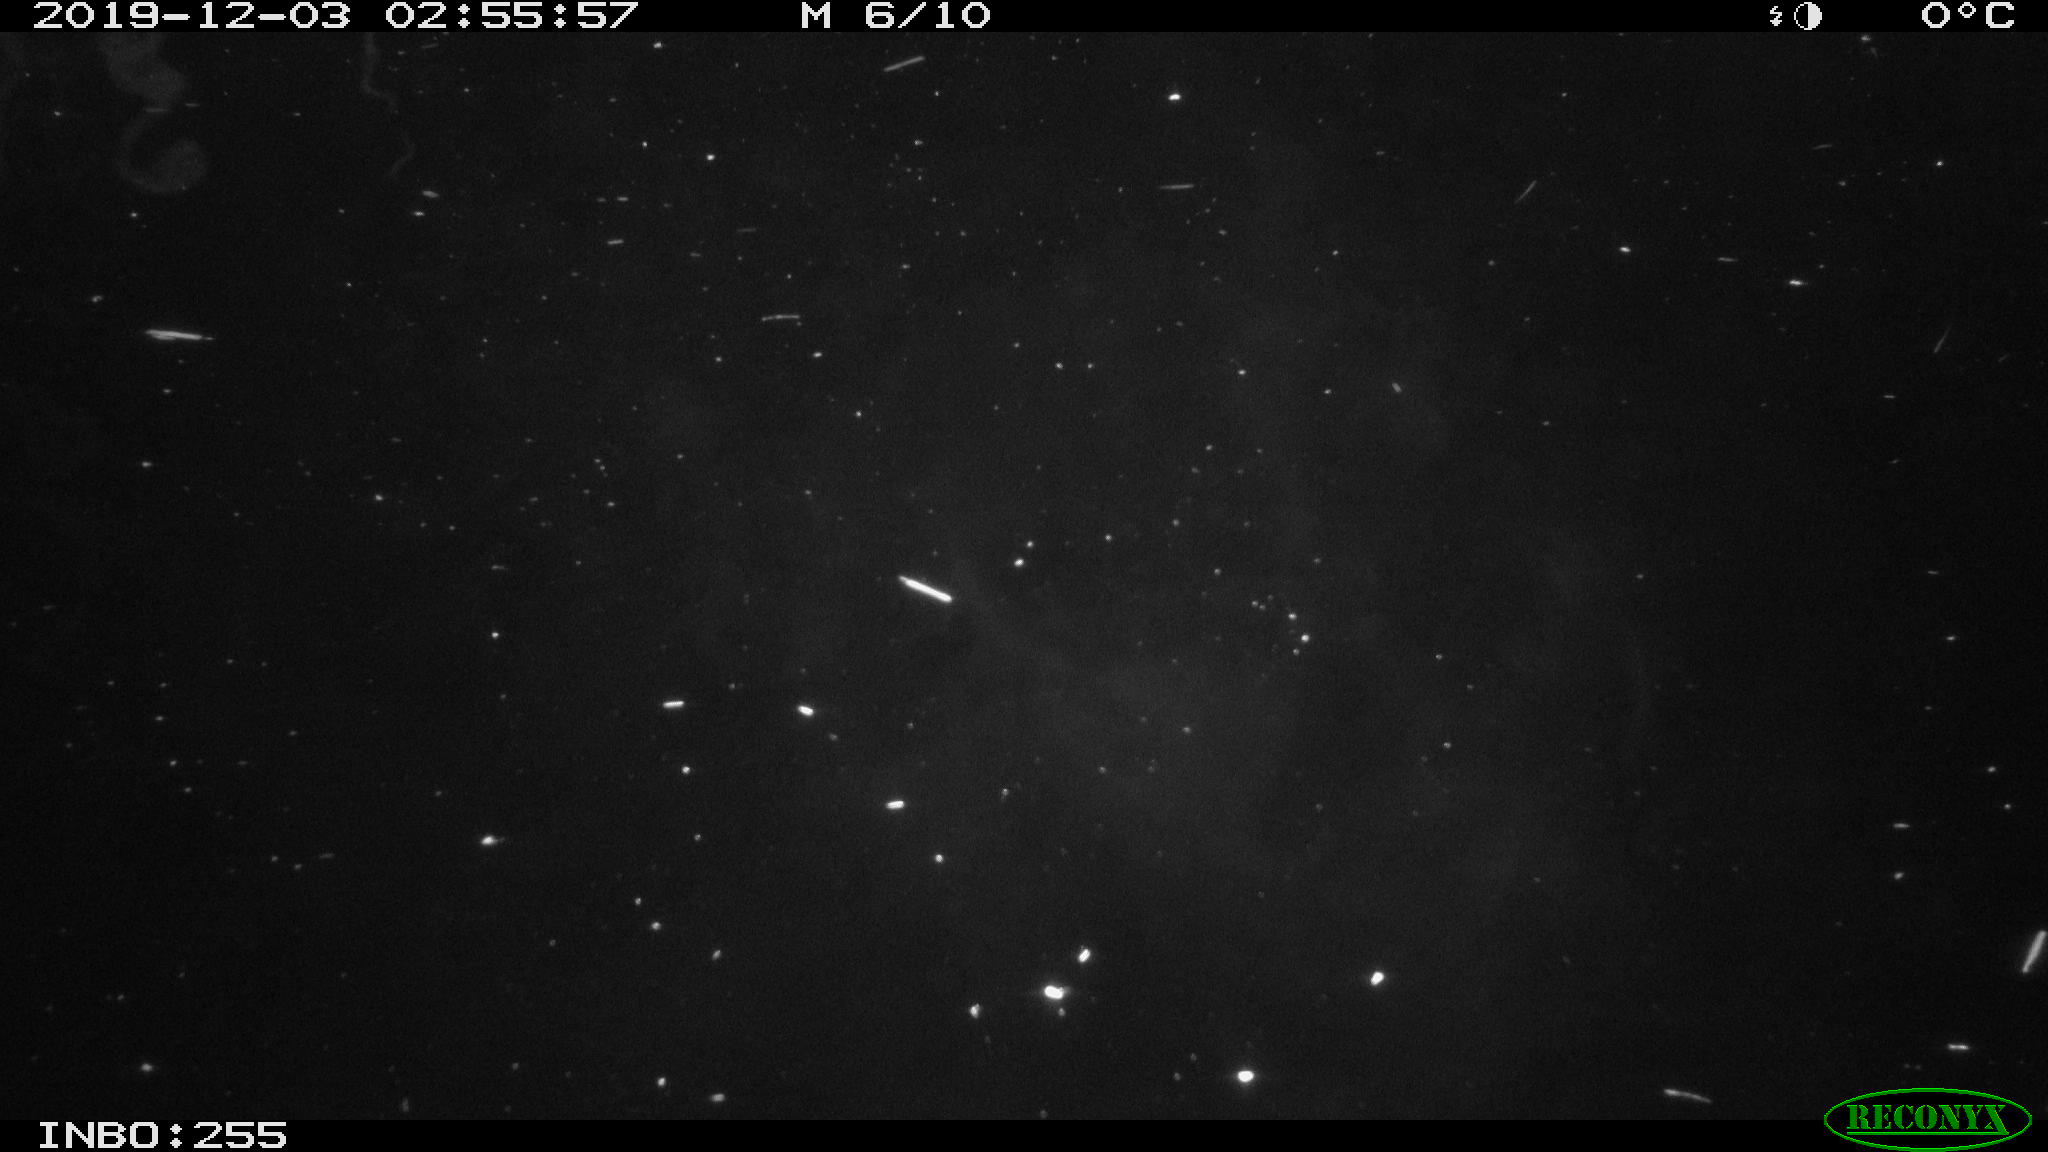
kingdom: Animalia
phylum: Chordata
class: Mammalia
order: Rodentia
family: Cricetidae
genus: Ondatra
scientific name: Ondatra zibethicus
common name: Muskrat
